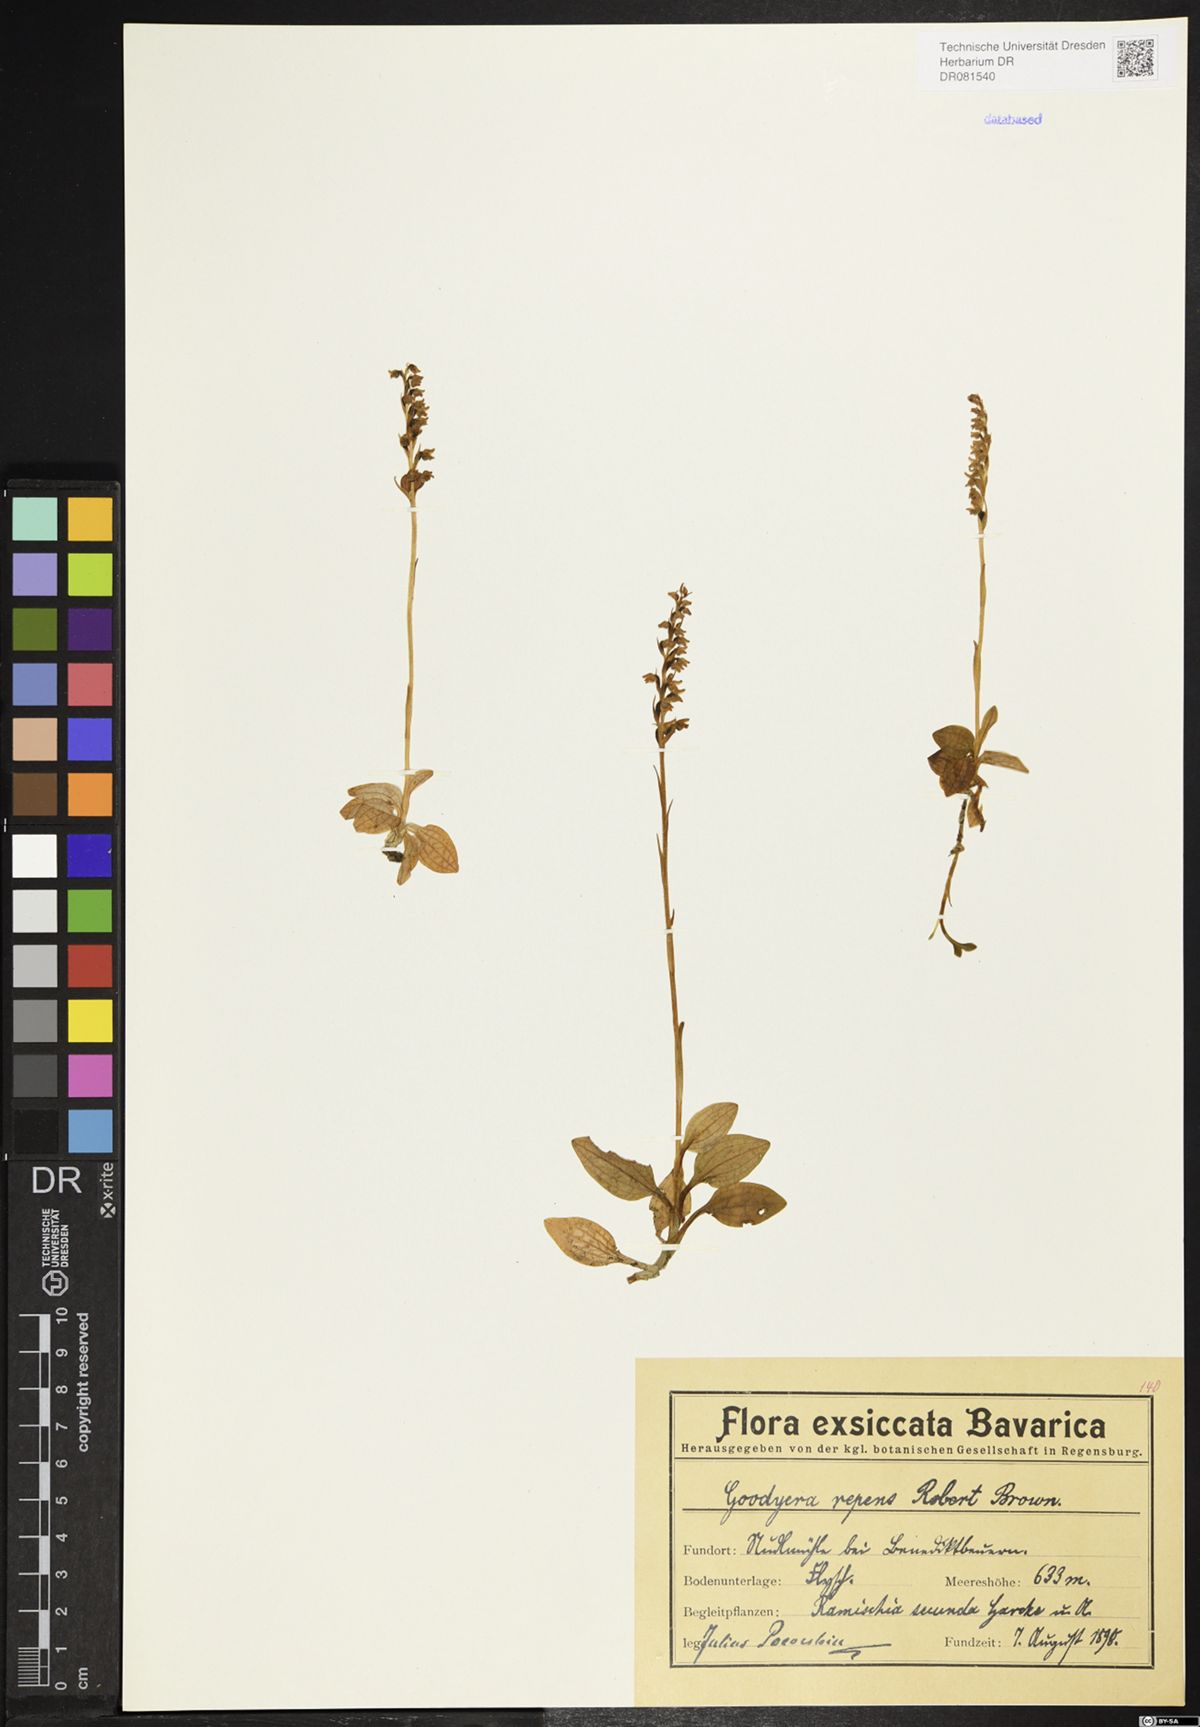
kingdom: Plantae
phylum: Tracheophyta
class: Liliopsida
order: Asparagales
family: Orchidaceae
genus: Goodyera
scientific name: Goodyera repens
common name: Creeping lady's-tresses
